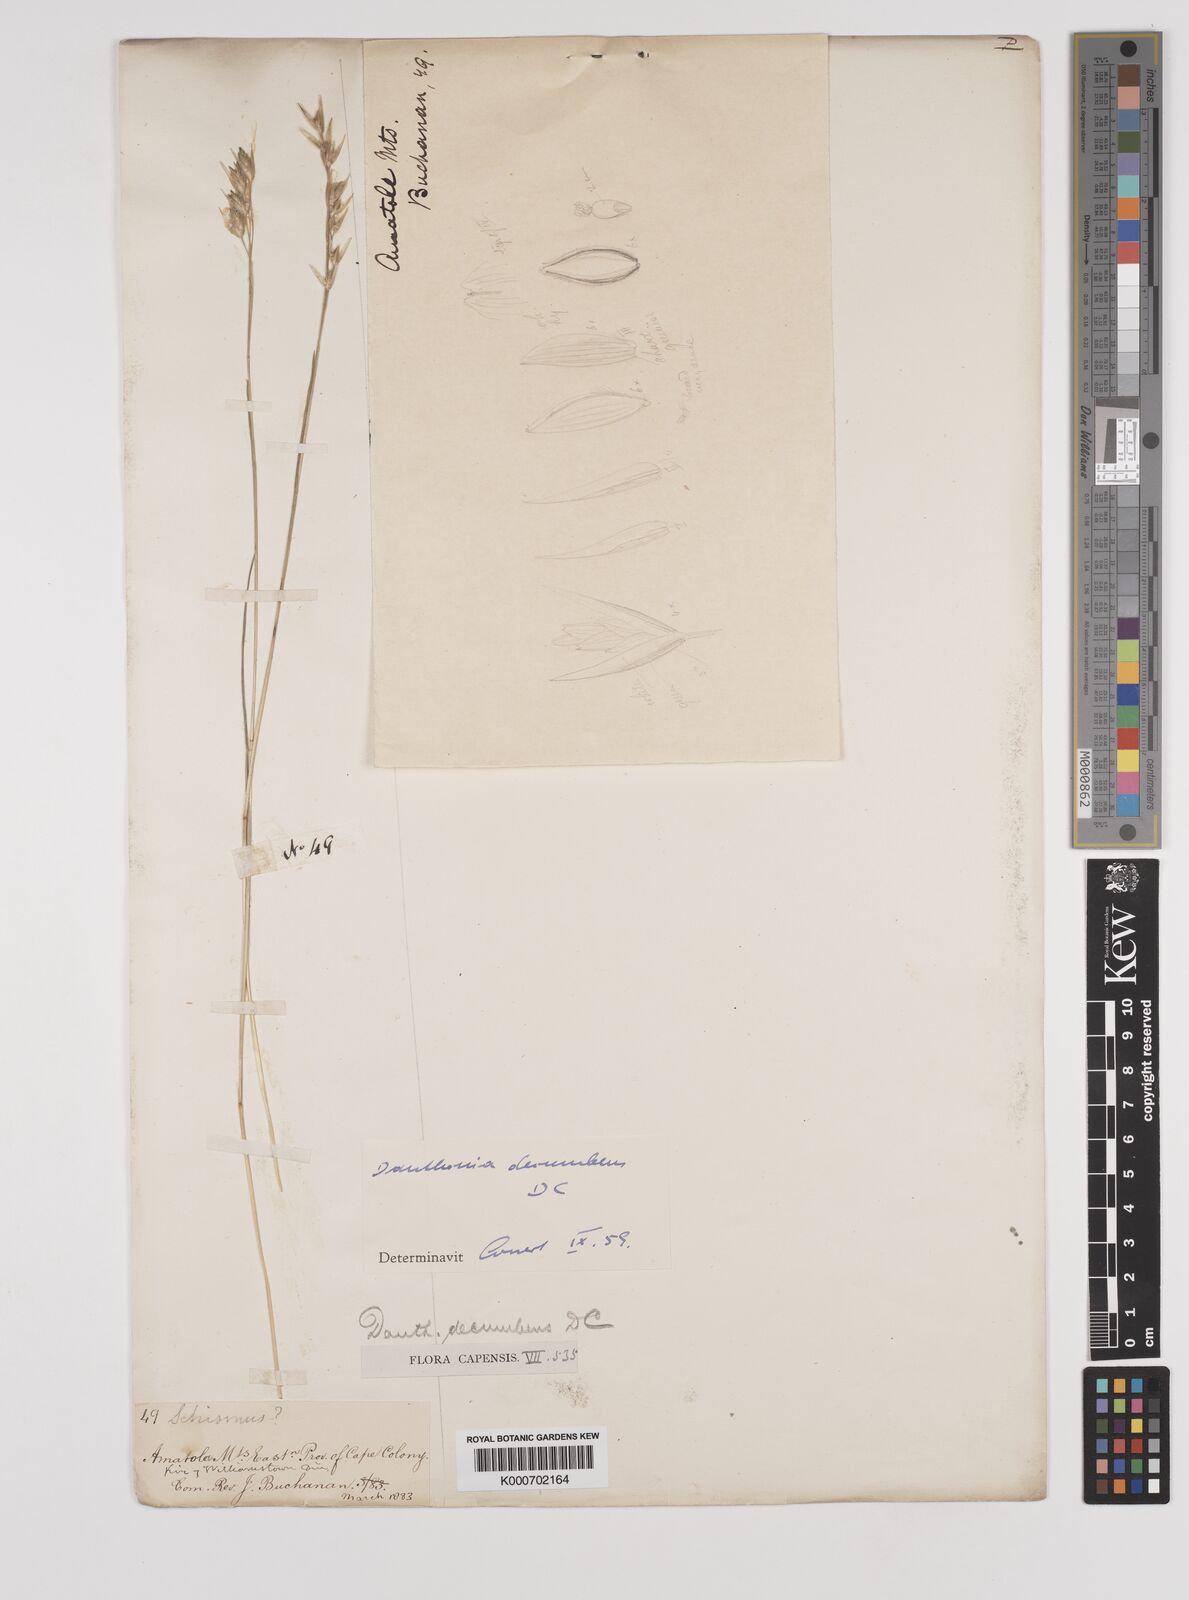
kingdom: Plantae
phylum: Tracheophyta
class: Liliopsida
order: Poales
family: Poaceae
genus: Danthonia
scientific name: Danthonia decumbens
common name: Common heathgrass
